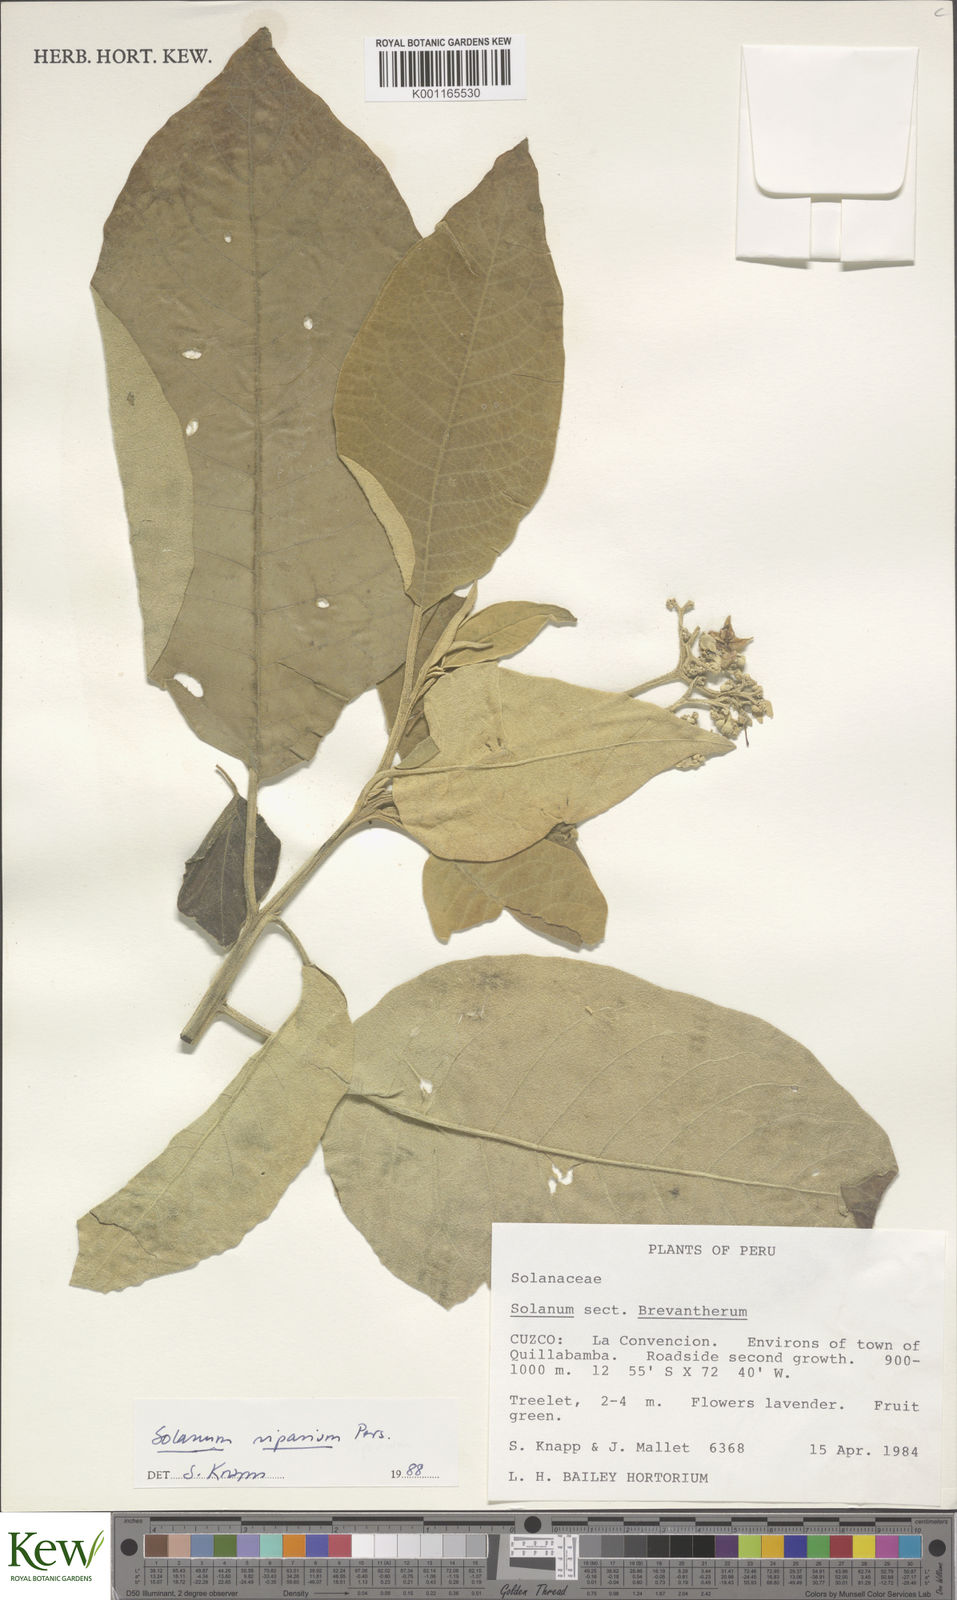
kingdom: Plantae
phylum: Tracheophyta
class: Magnoliopsida
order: Solanales
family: Solanaceae
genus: Solanum
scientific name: Solanum riparium
